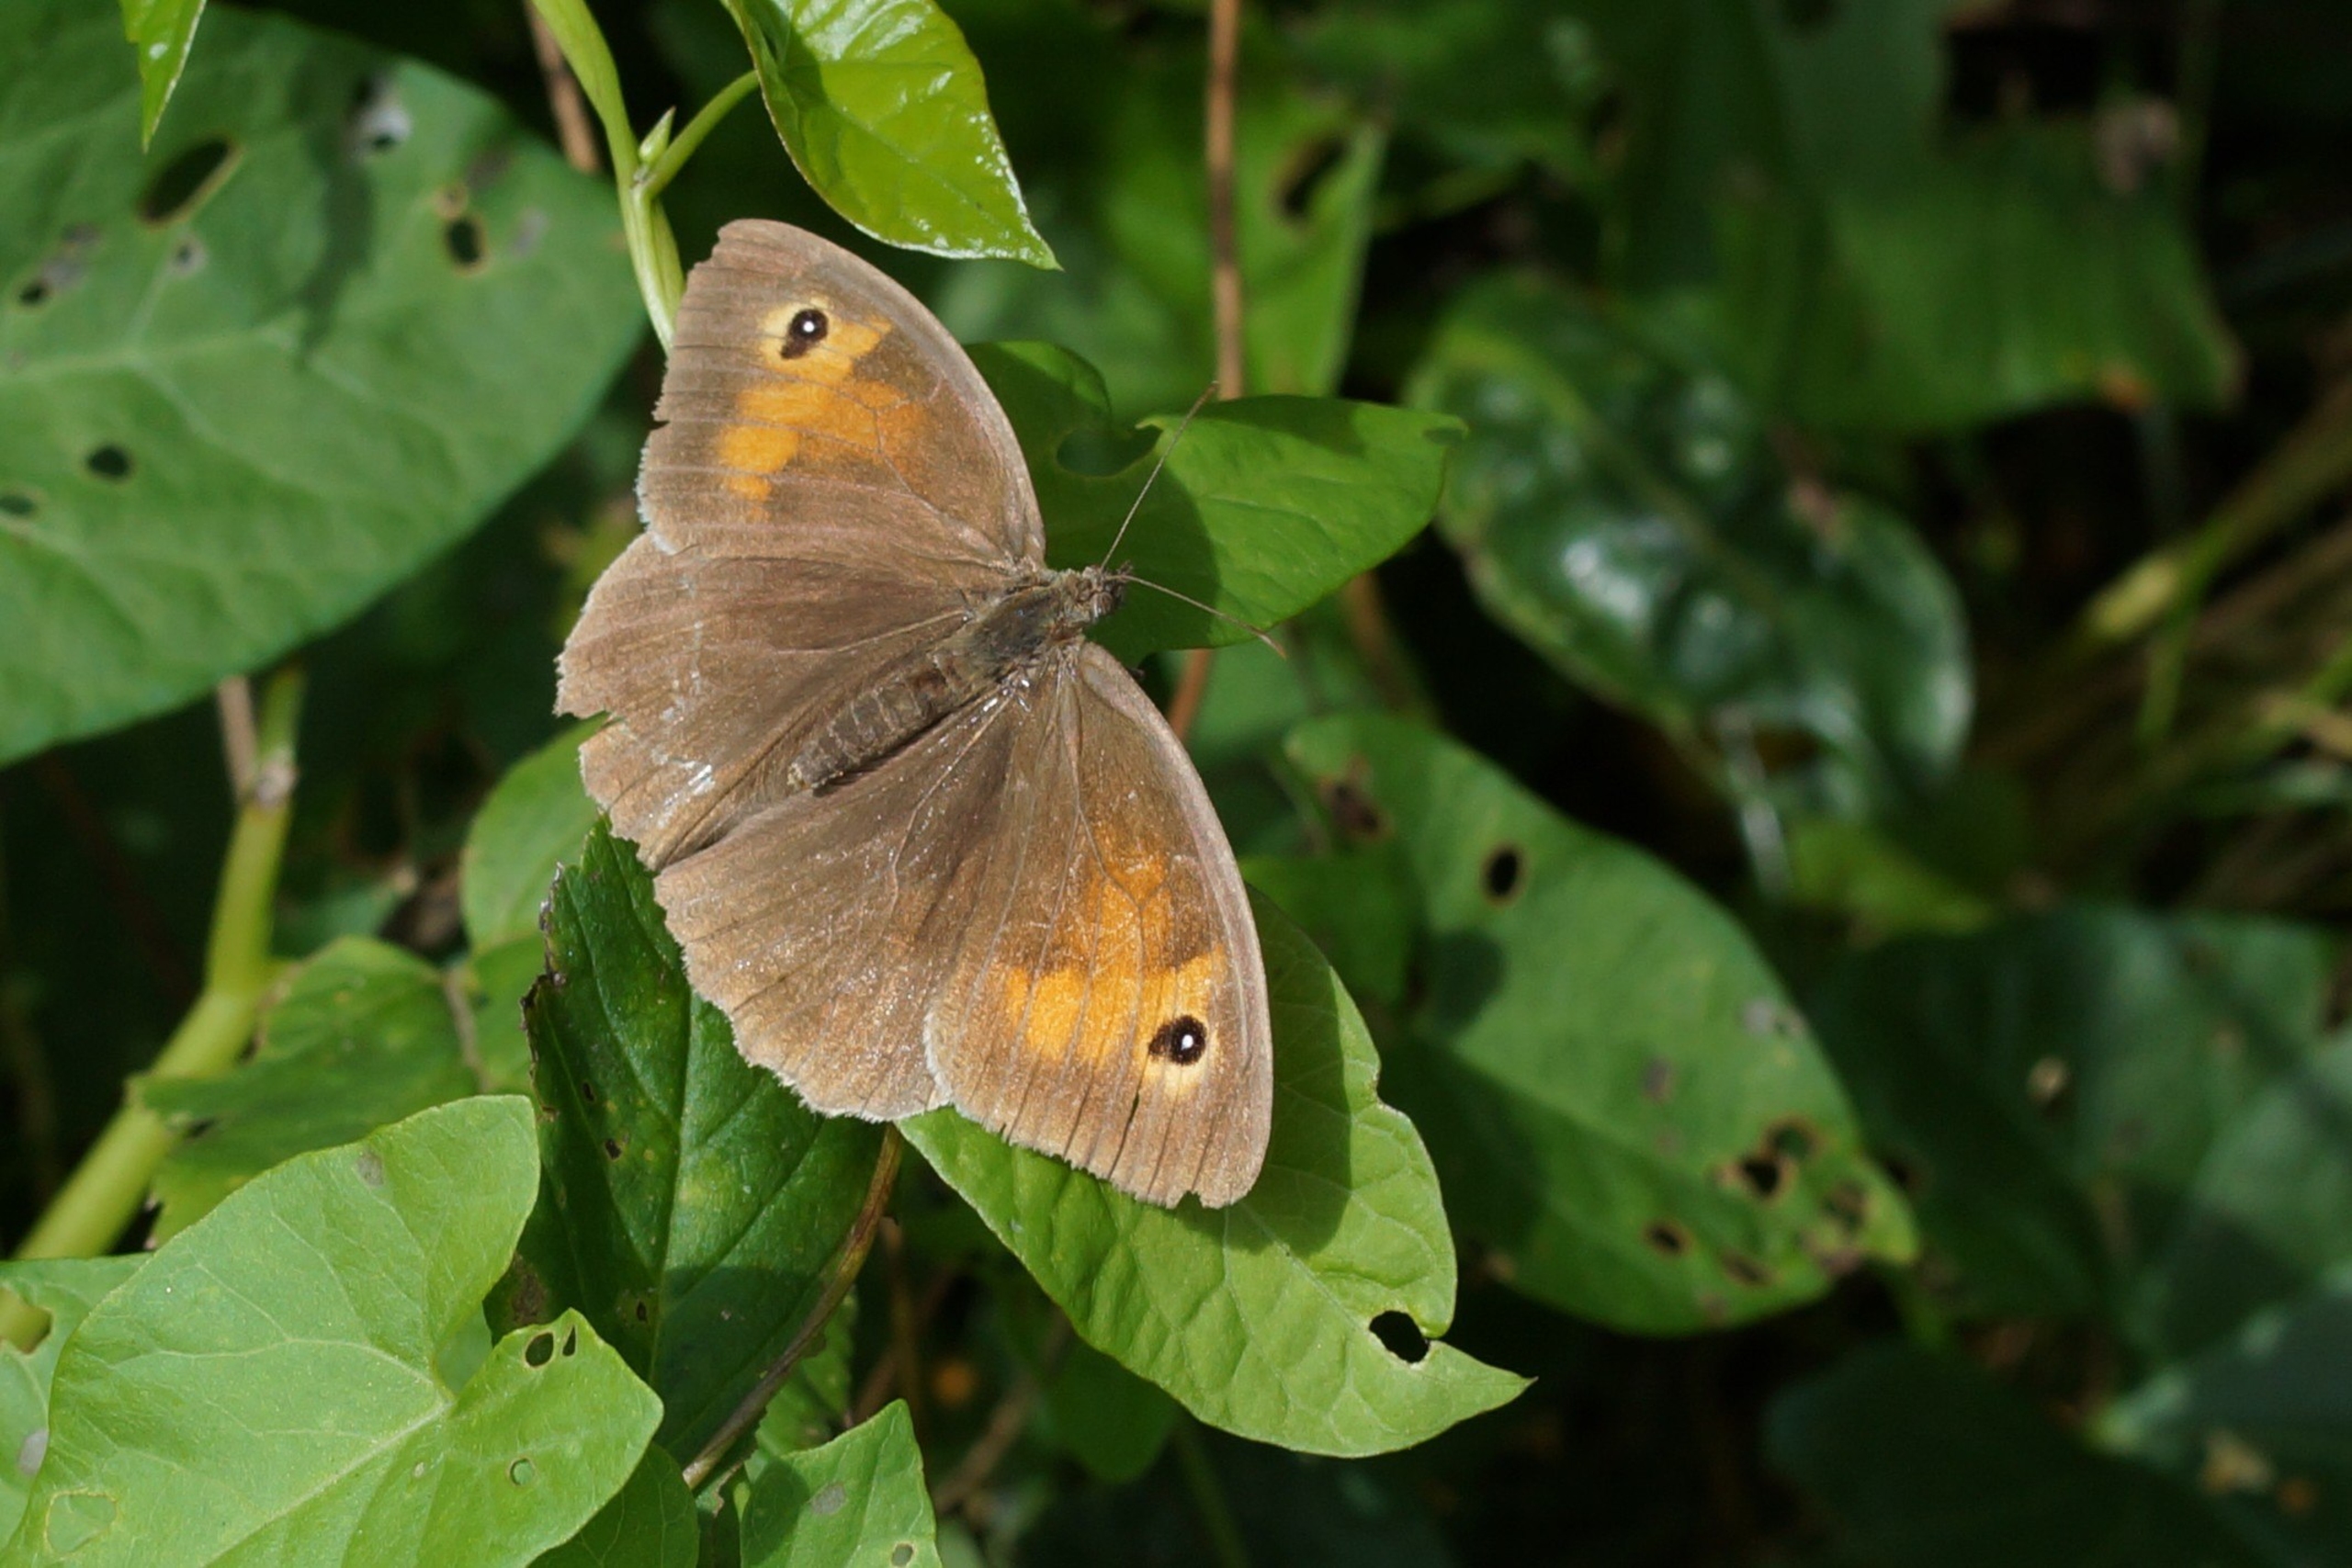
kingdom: Animalia
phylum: Arthropoda
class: Insecta
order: Lepidoptera
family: Nymphalidae
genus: Maniola
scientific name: Maniola jurtina
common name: Græsrandøje
